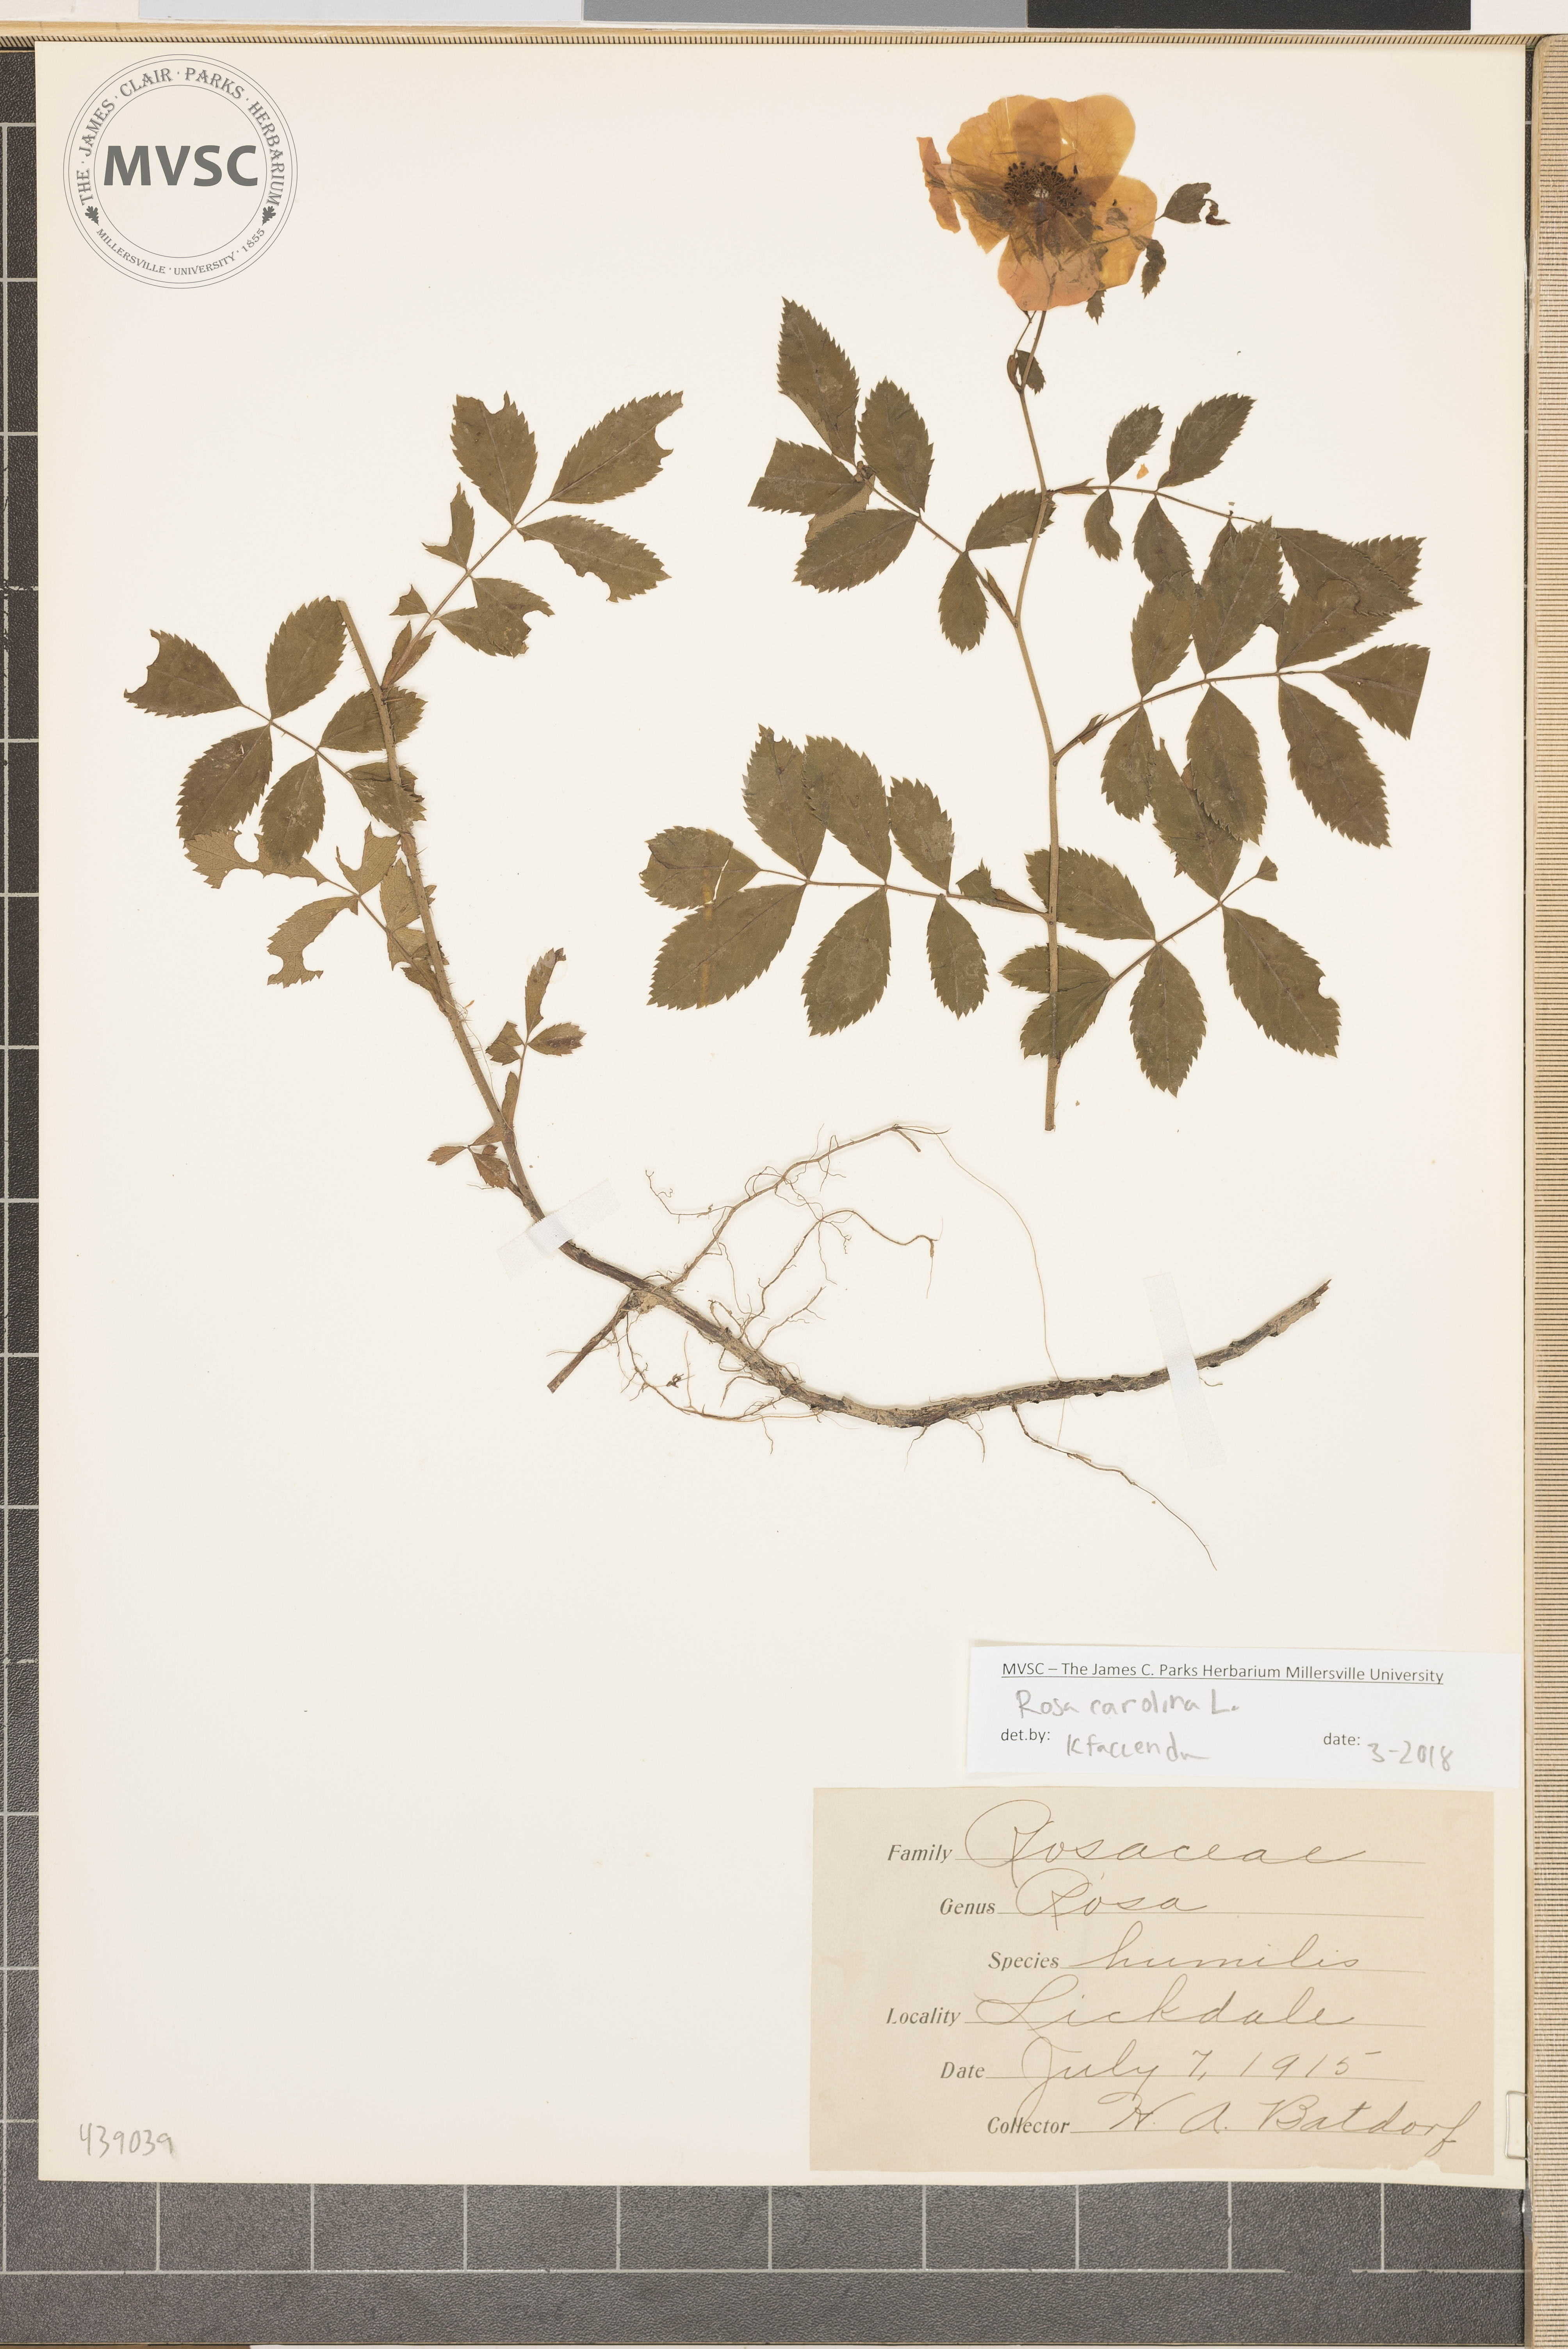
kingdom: Plantae
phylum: Tracheophyta
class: Magnoliopsida
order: Rosales
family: Rosaceae
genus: Rosa
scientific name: Rosa carolina
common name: Pasture rose
